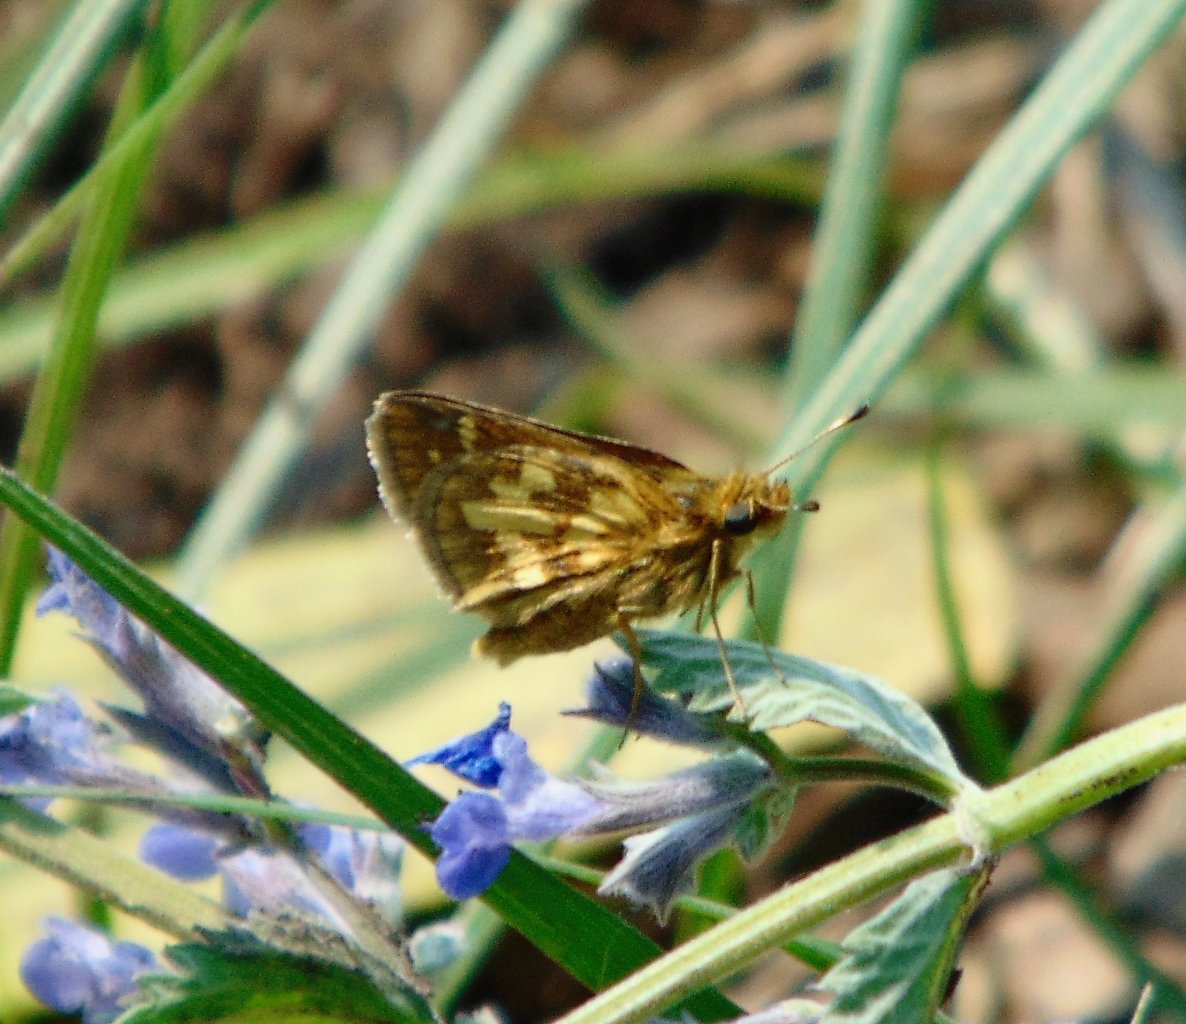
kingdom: Animalia
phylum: Arthropoda
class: Insecta
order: Lepidoptera
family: Hesperiidae
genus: Polites
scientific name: Polites coras
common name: Peck's Skipper
